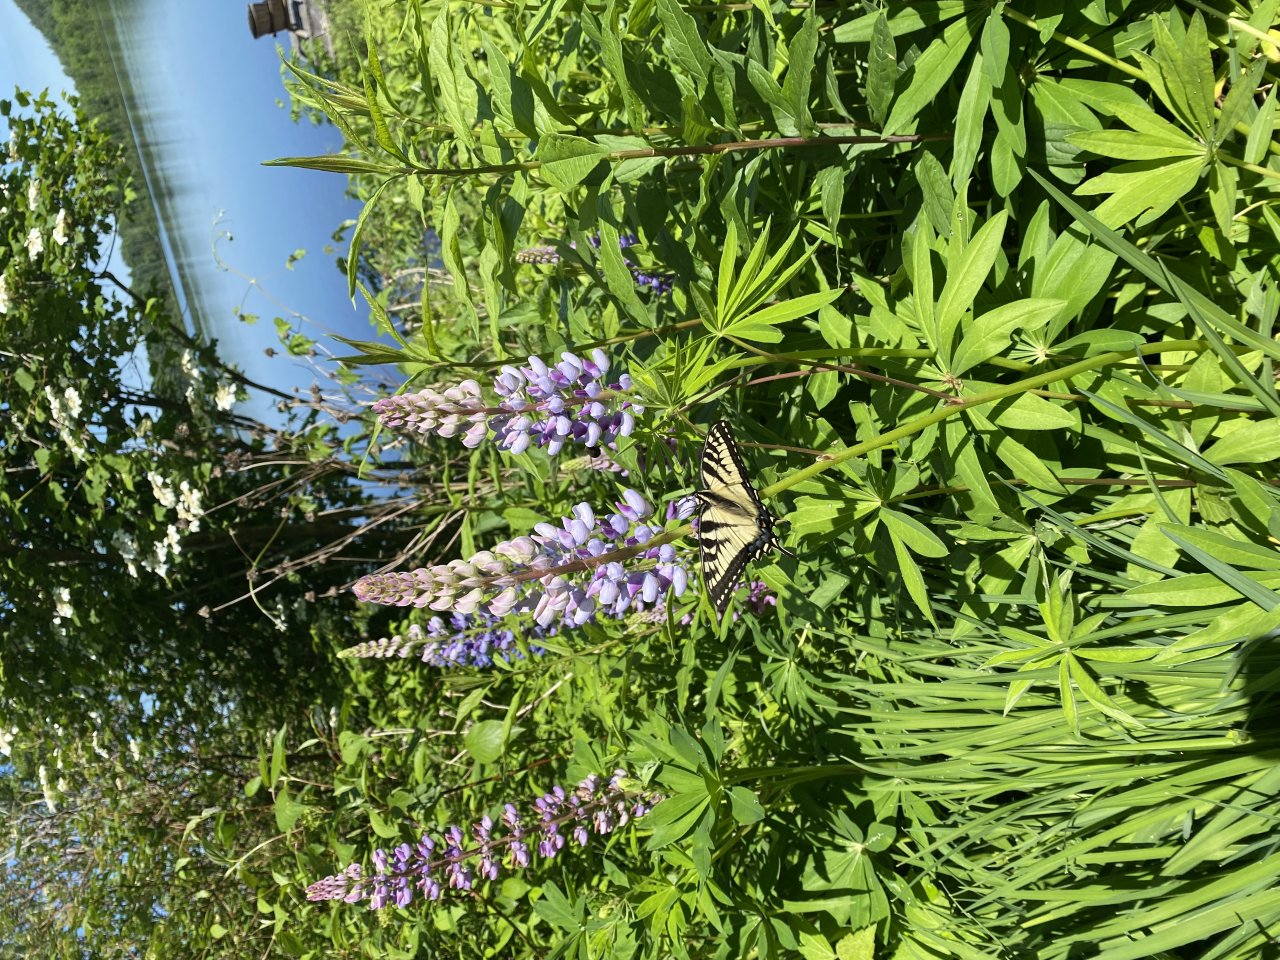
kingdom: Animalia
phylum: Arthropoda
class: Insecta
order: Lepidoptera
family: Papilionidae
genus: Pterourus
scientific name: Pterourus canadensis
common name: Canadian Tiger Swallowtail
